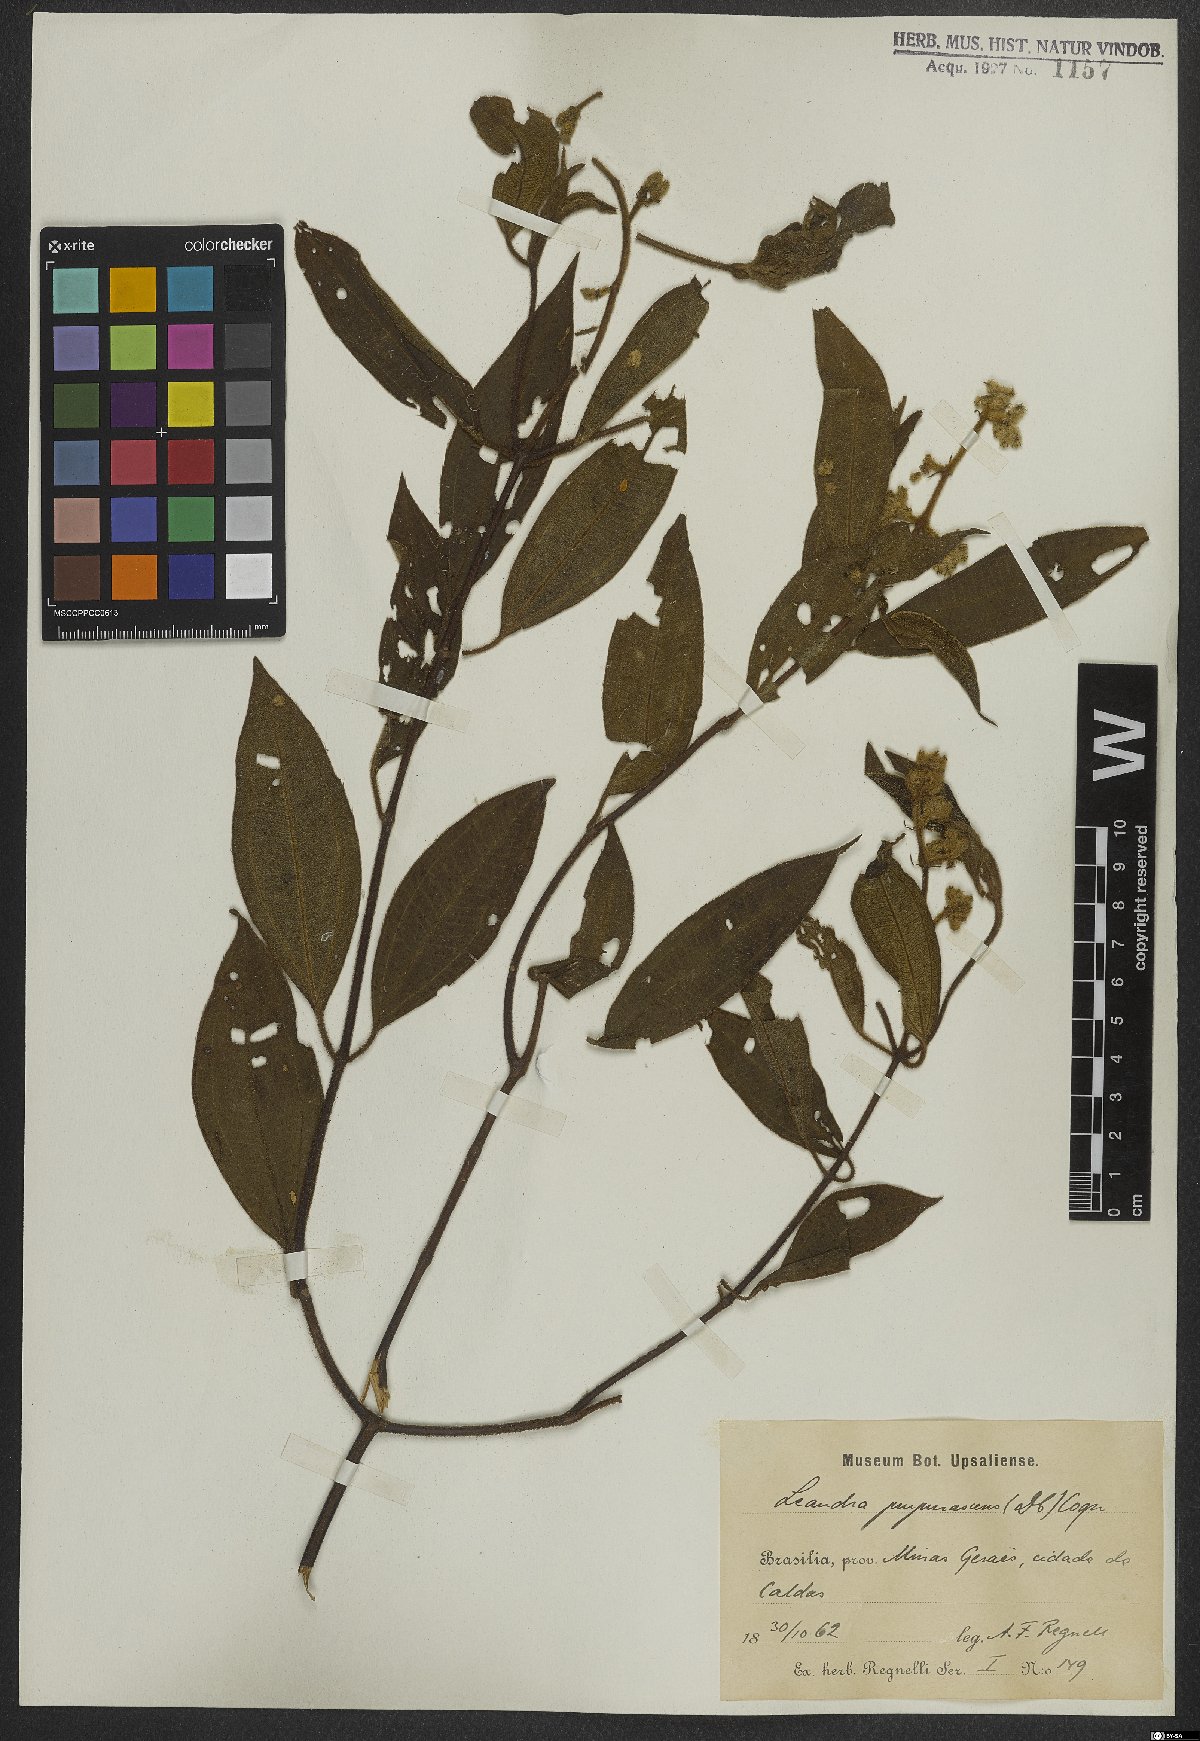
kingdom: Plantae
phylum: Tracheophyta
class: Magnoliopsida
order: Myrtales
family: Melastomataceae
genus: Miconia
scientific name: Miconia microstachya
